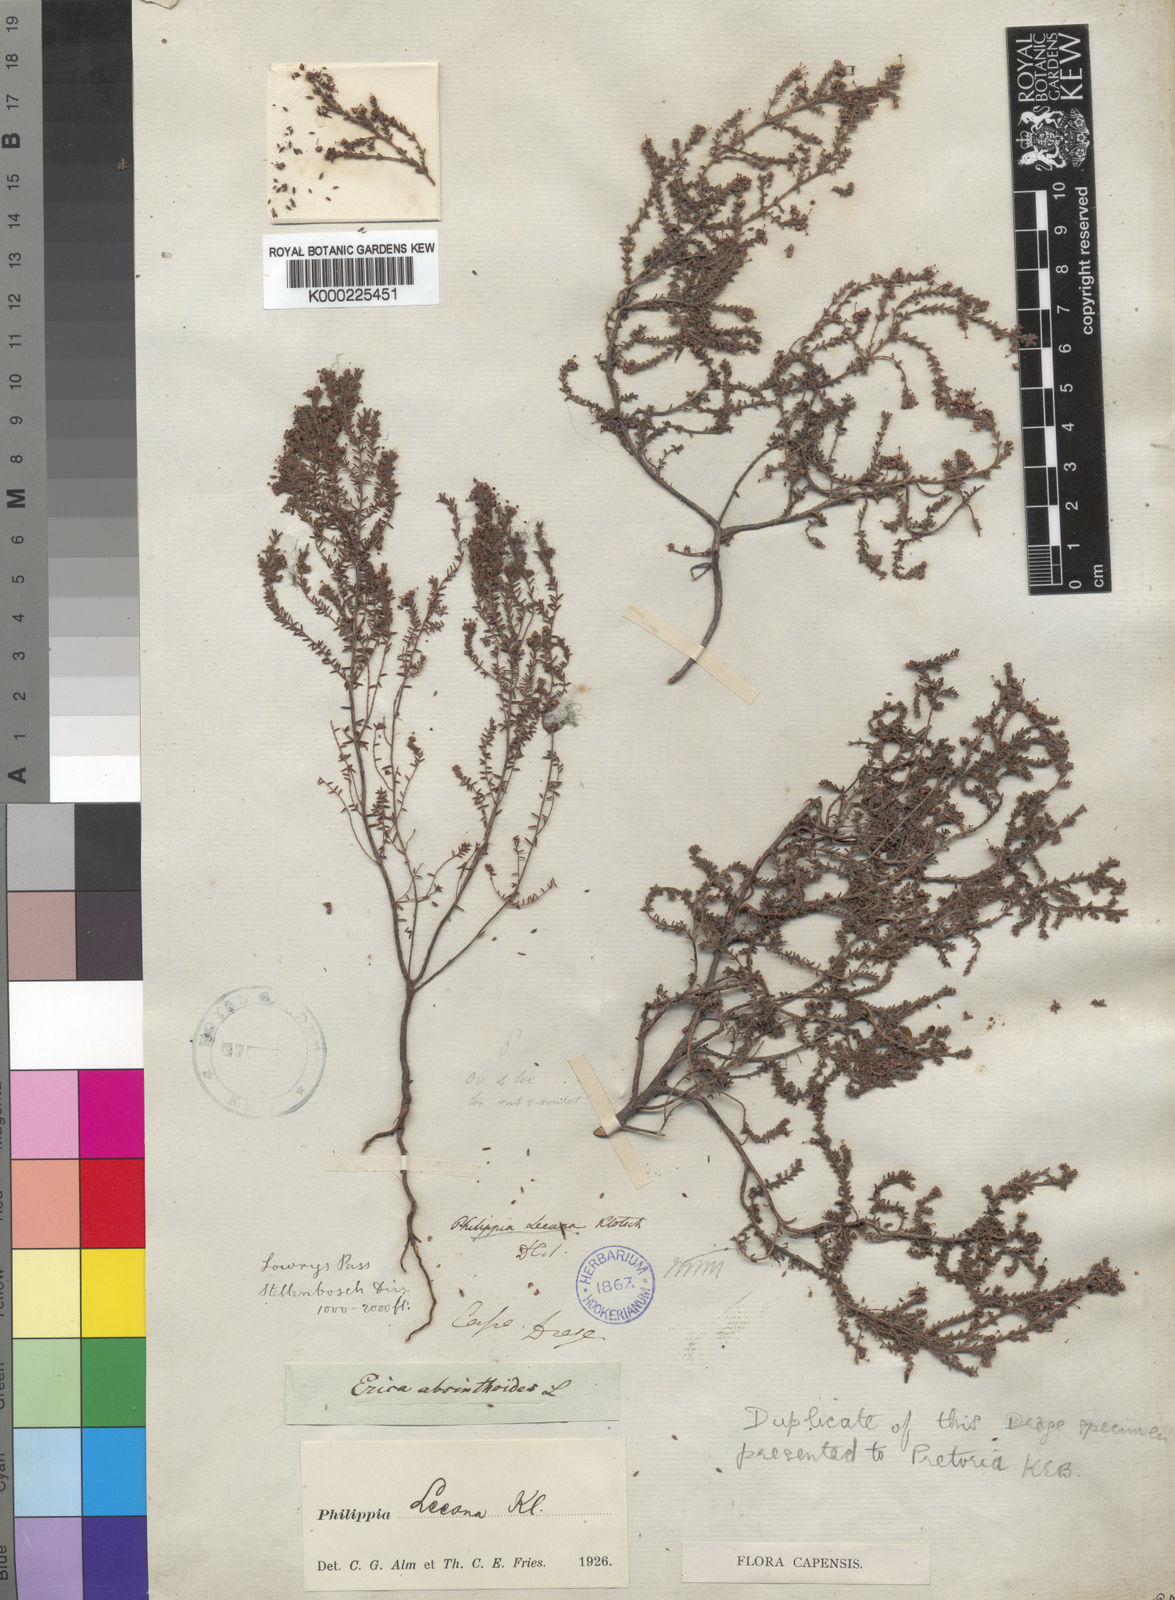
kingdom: Plantae
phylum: Tracheophyta
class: Magnoliopsida
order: Ericales
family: Ericaceae
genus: Erica
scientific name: Erica exleeana
